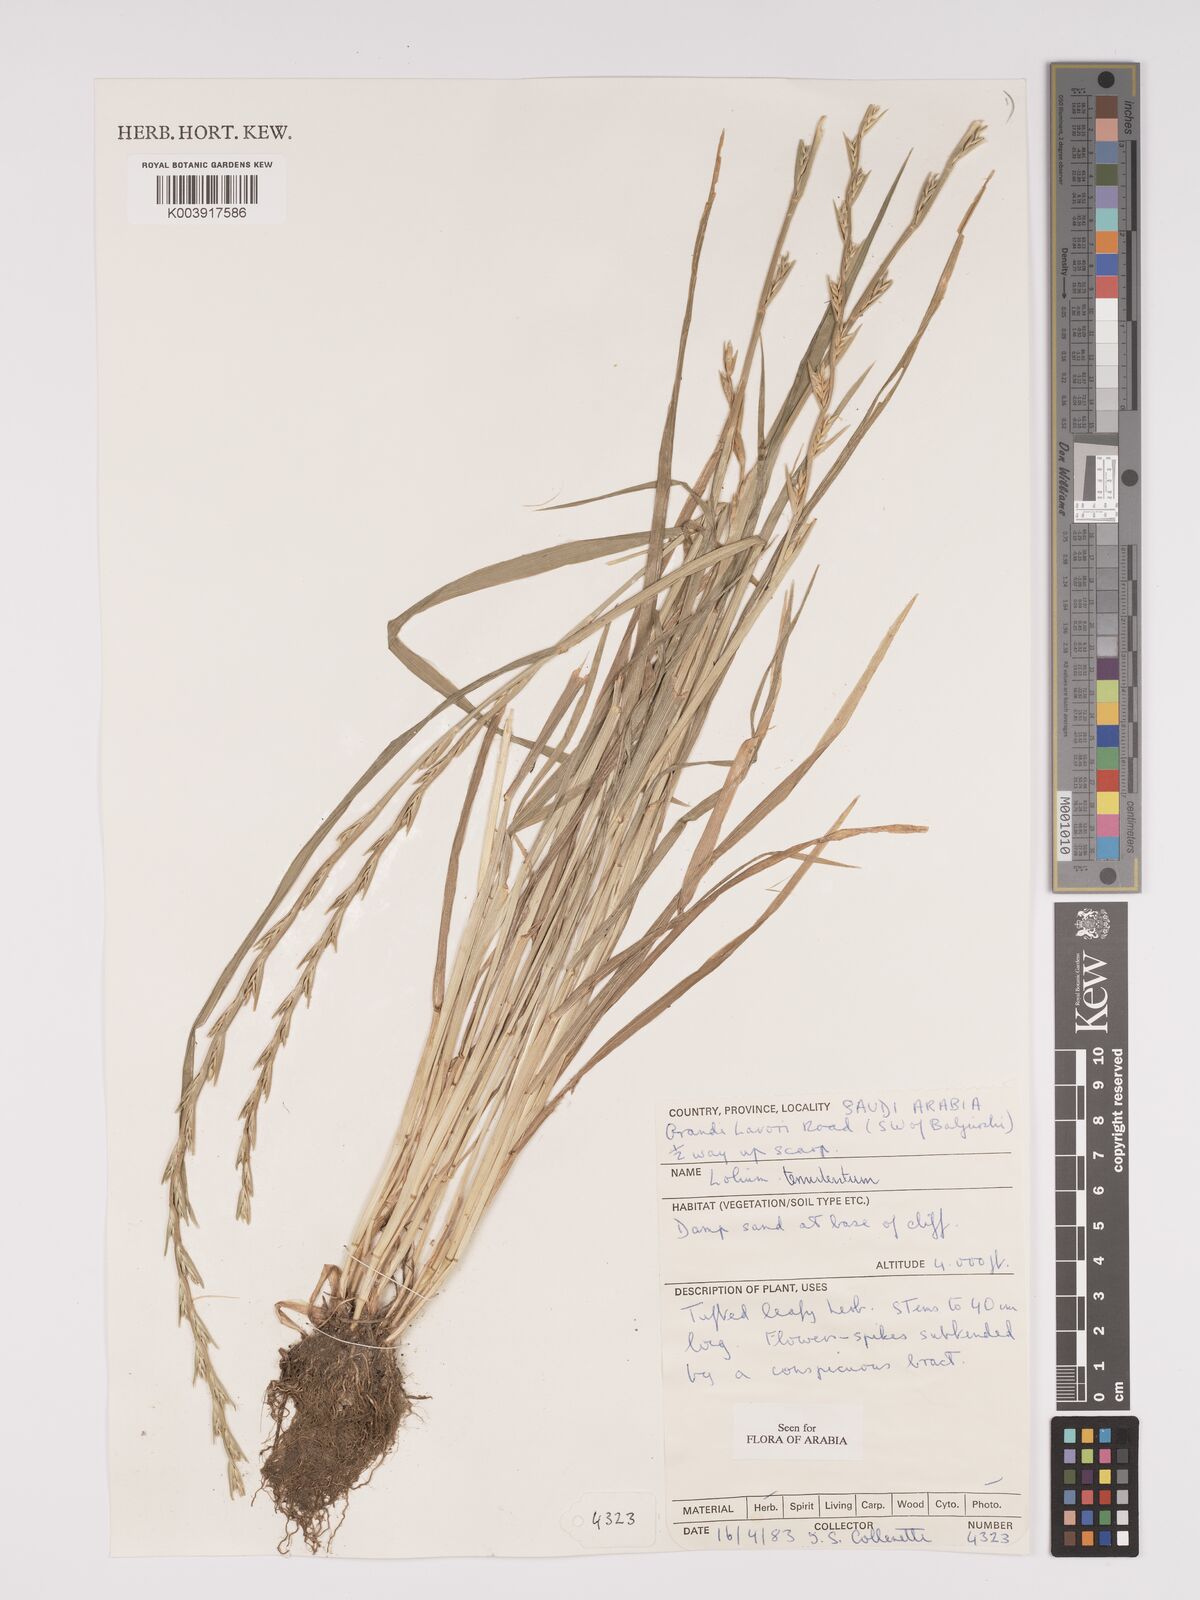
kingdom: Plantae
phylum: Tracheophyta
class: Liliopsida
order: Poales
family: Poaceae
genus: Lolium
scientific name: Lolium temulentum
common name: Darnel
